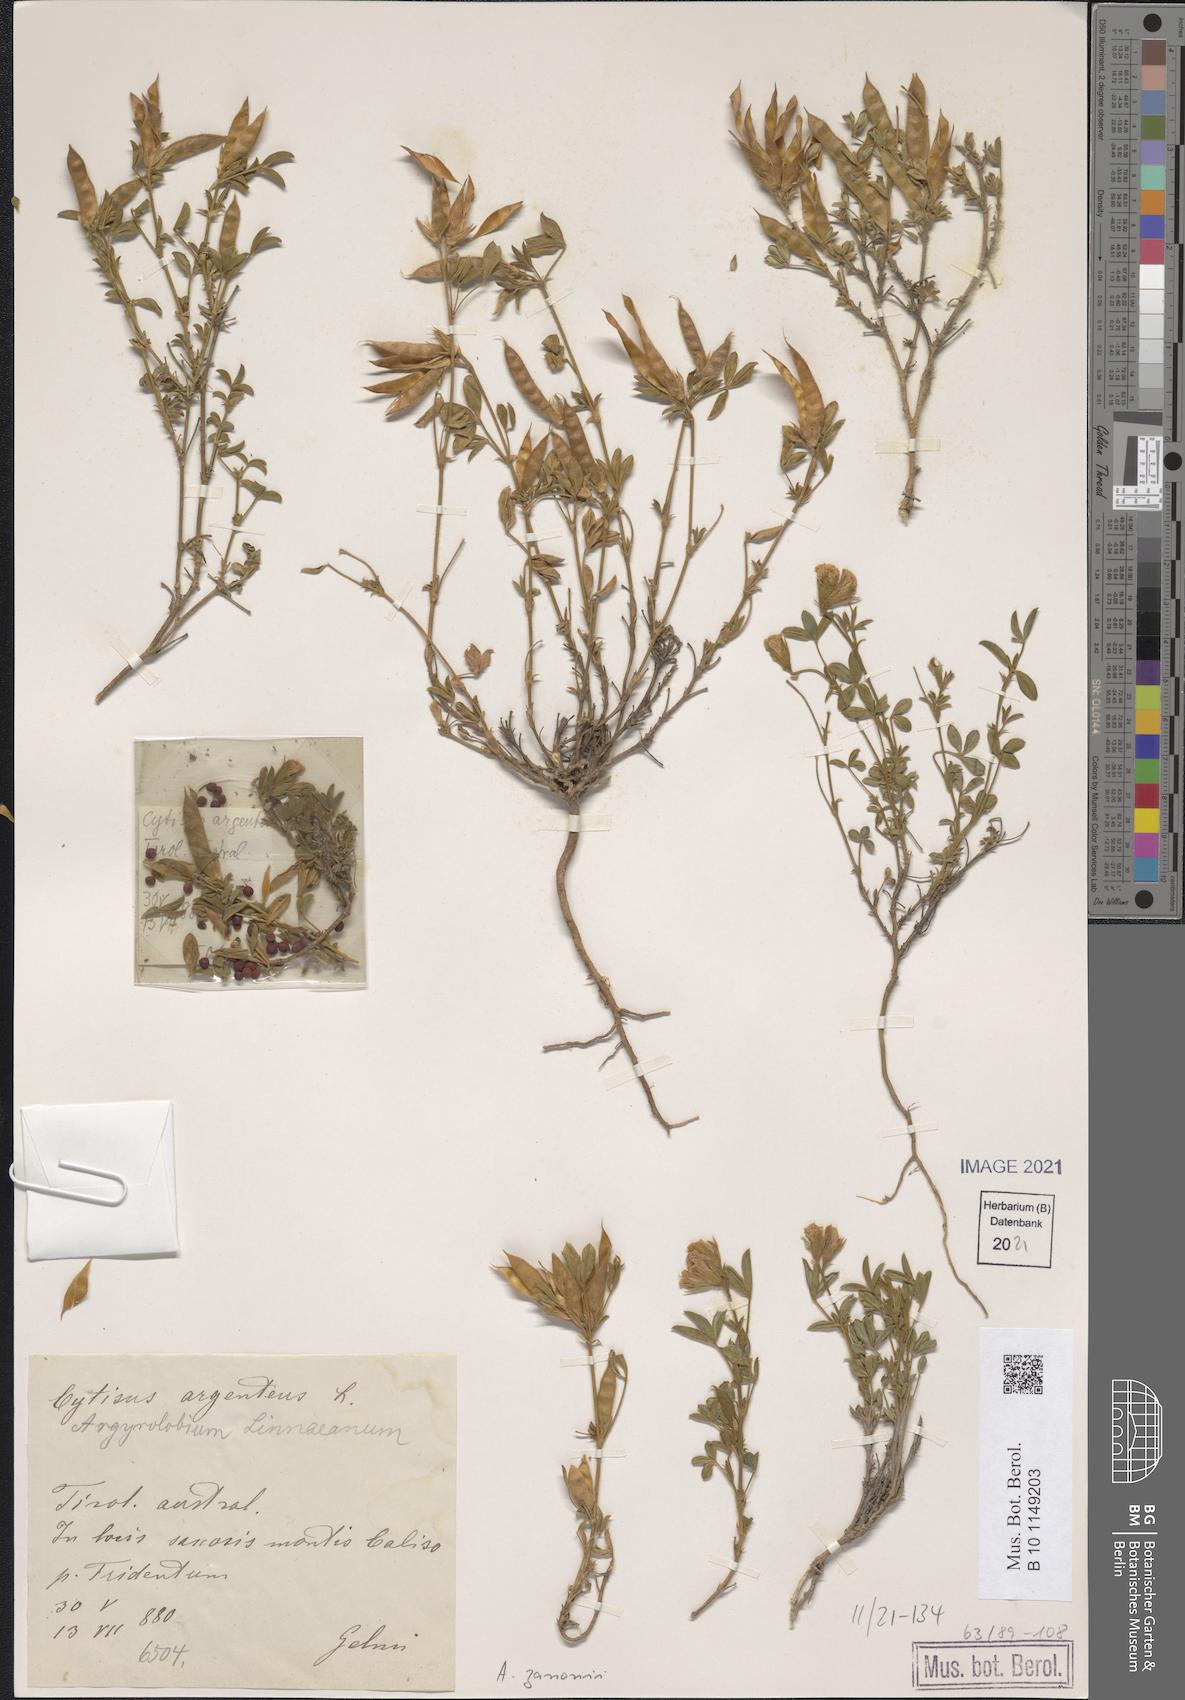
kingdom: Plantae
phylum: Tracheophyta
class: Magnoliopsida
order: Fabales
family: Fabaceae
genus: Argyrolobium
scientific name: Argyrolobium zanonii
